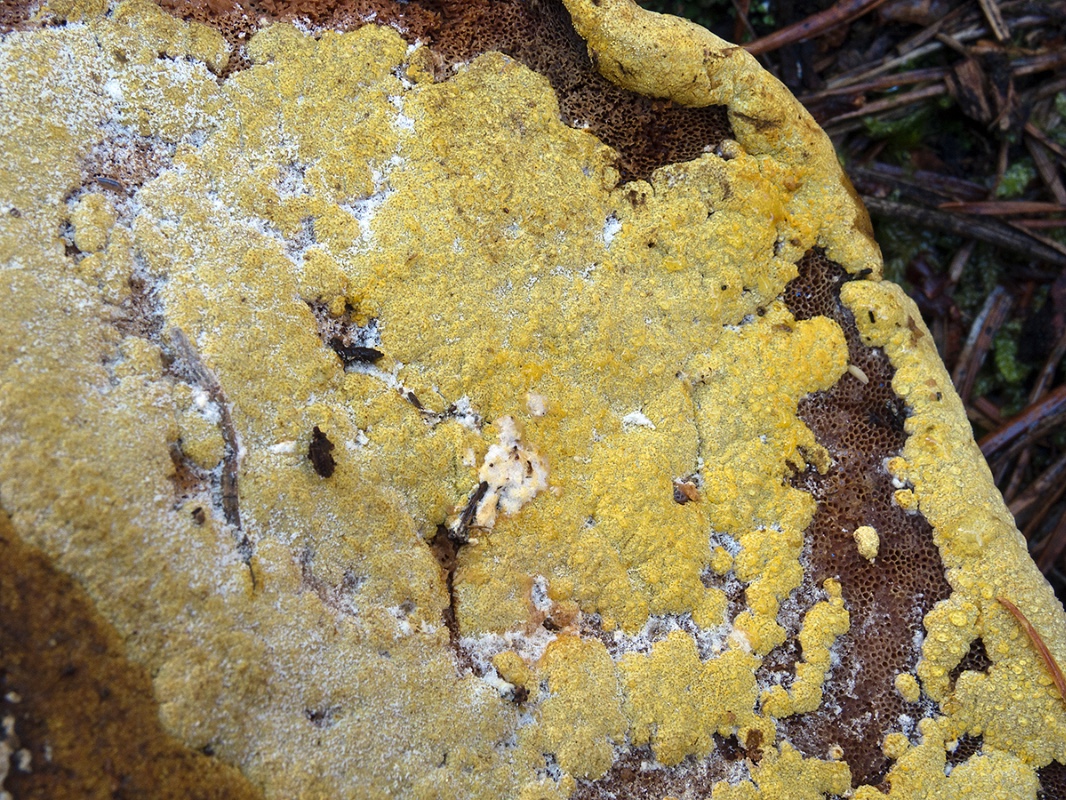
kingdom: Fungi
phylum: Ascomycota
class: Sordariomycetes
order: Hypocreales
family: Hypocreaceae
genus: Trichoderma
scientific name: Trichoderma pulvinatum
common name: snyltende kødkerne
